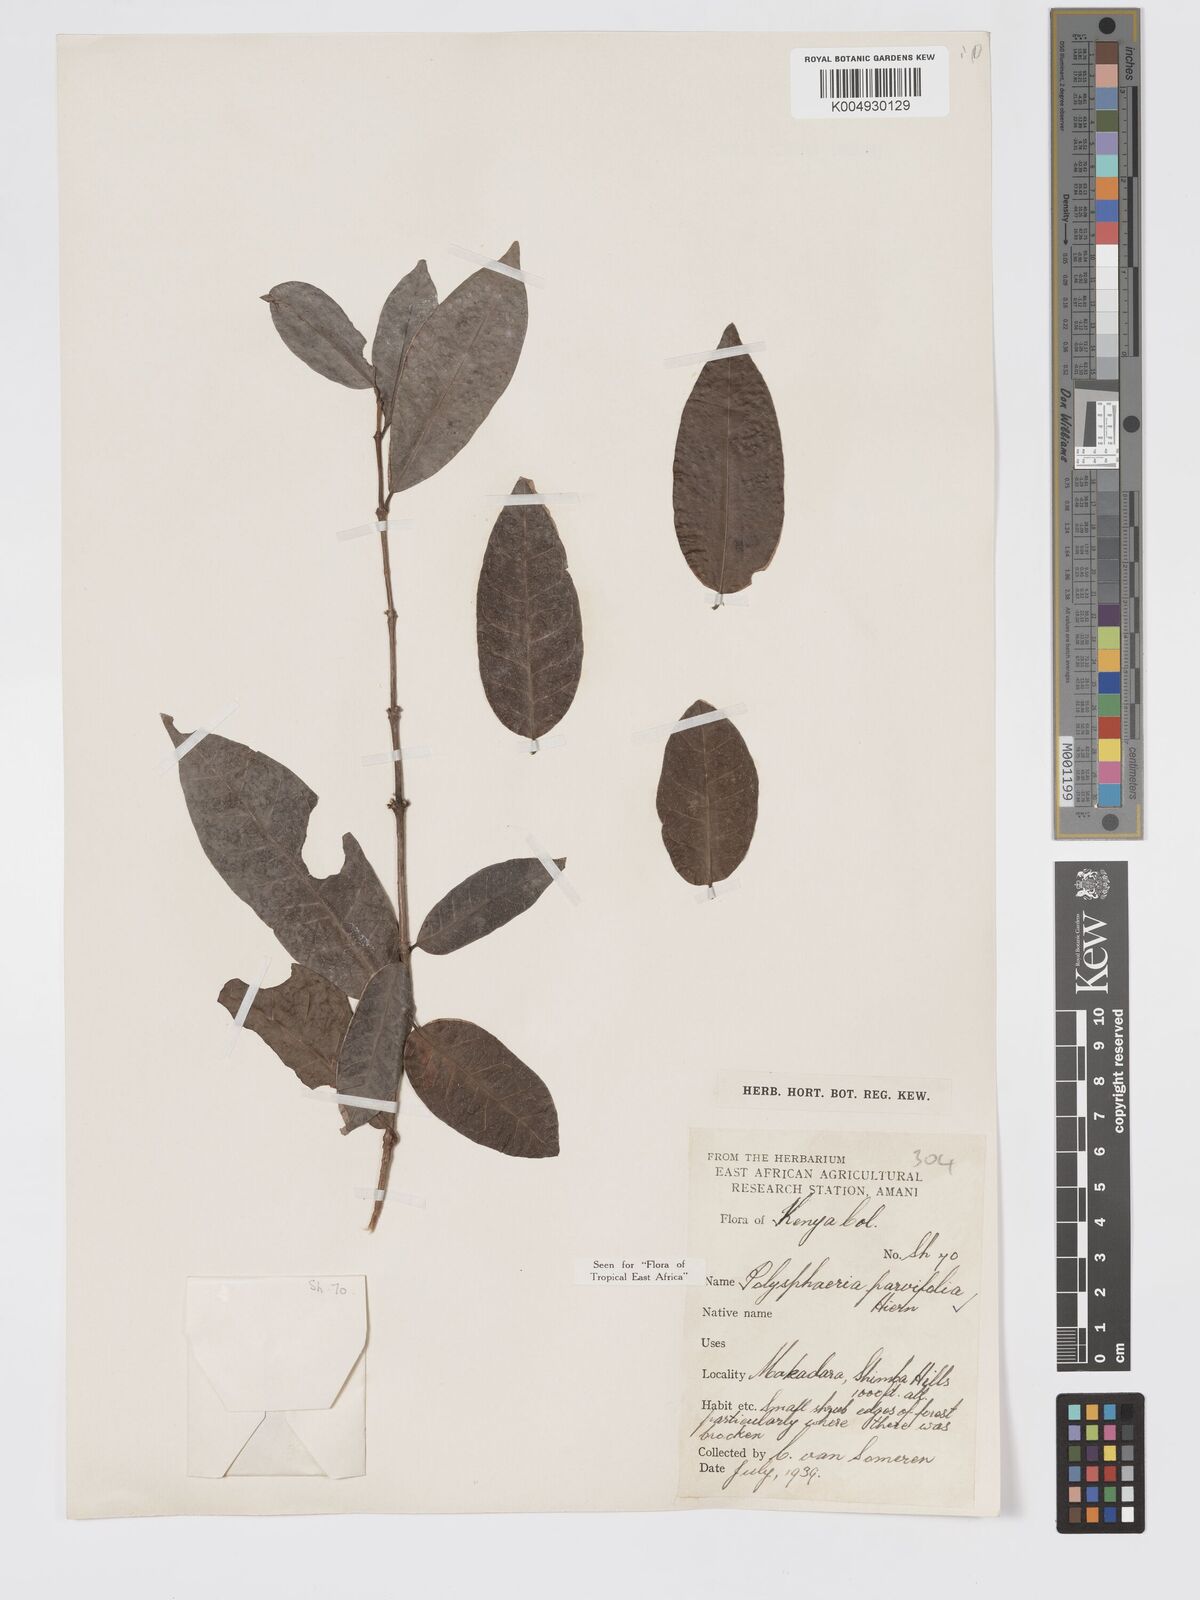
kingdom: Plantae
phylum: Tracheophyta
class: Magnoliopsida
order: Gentianales
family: Rubiaceae
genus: Polysphaeria
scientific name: Polysphaeria parvifolia
